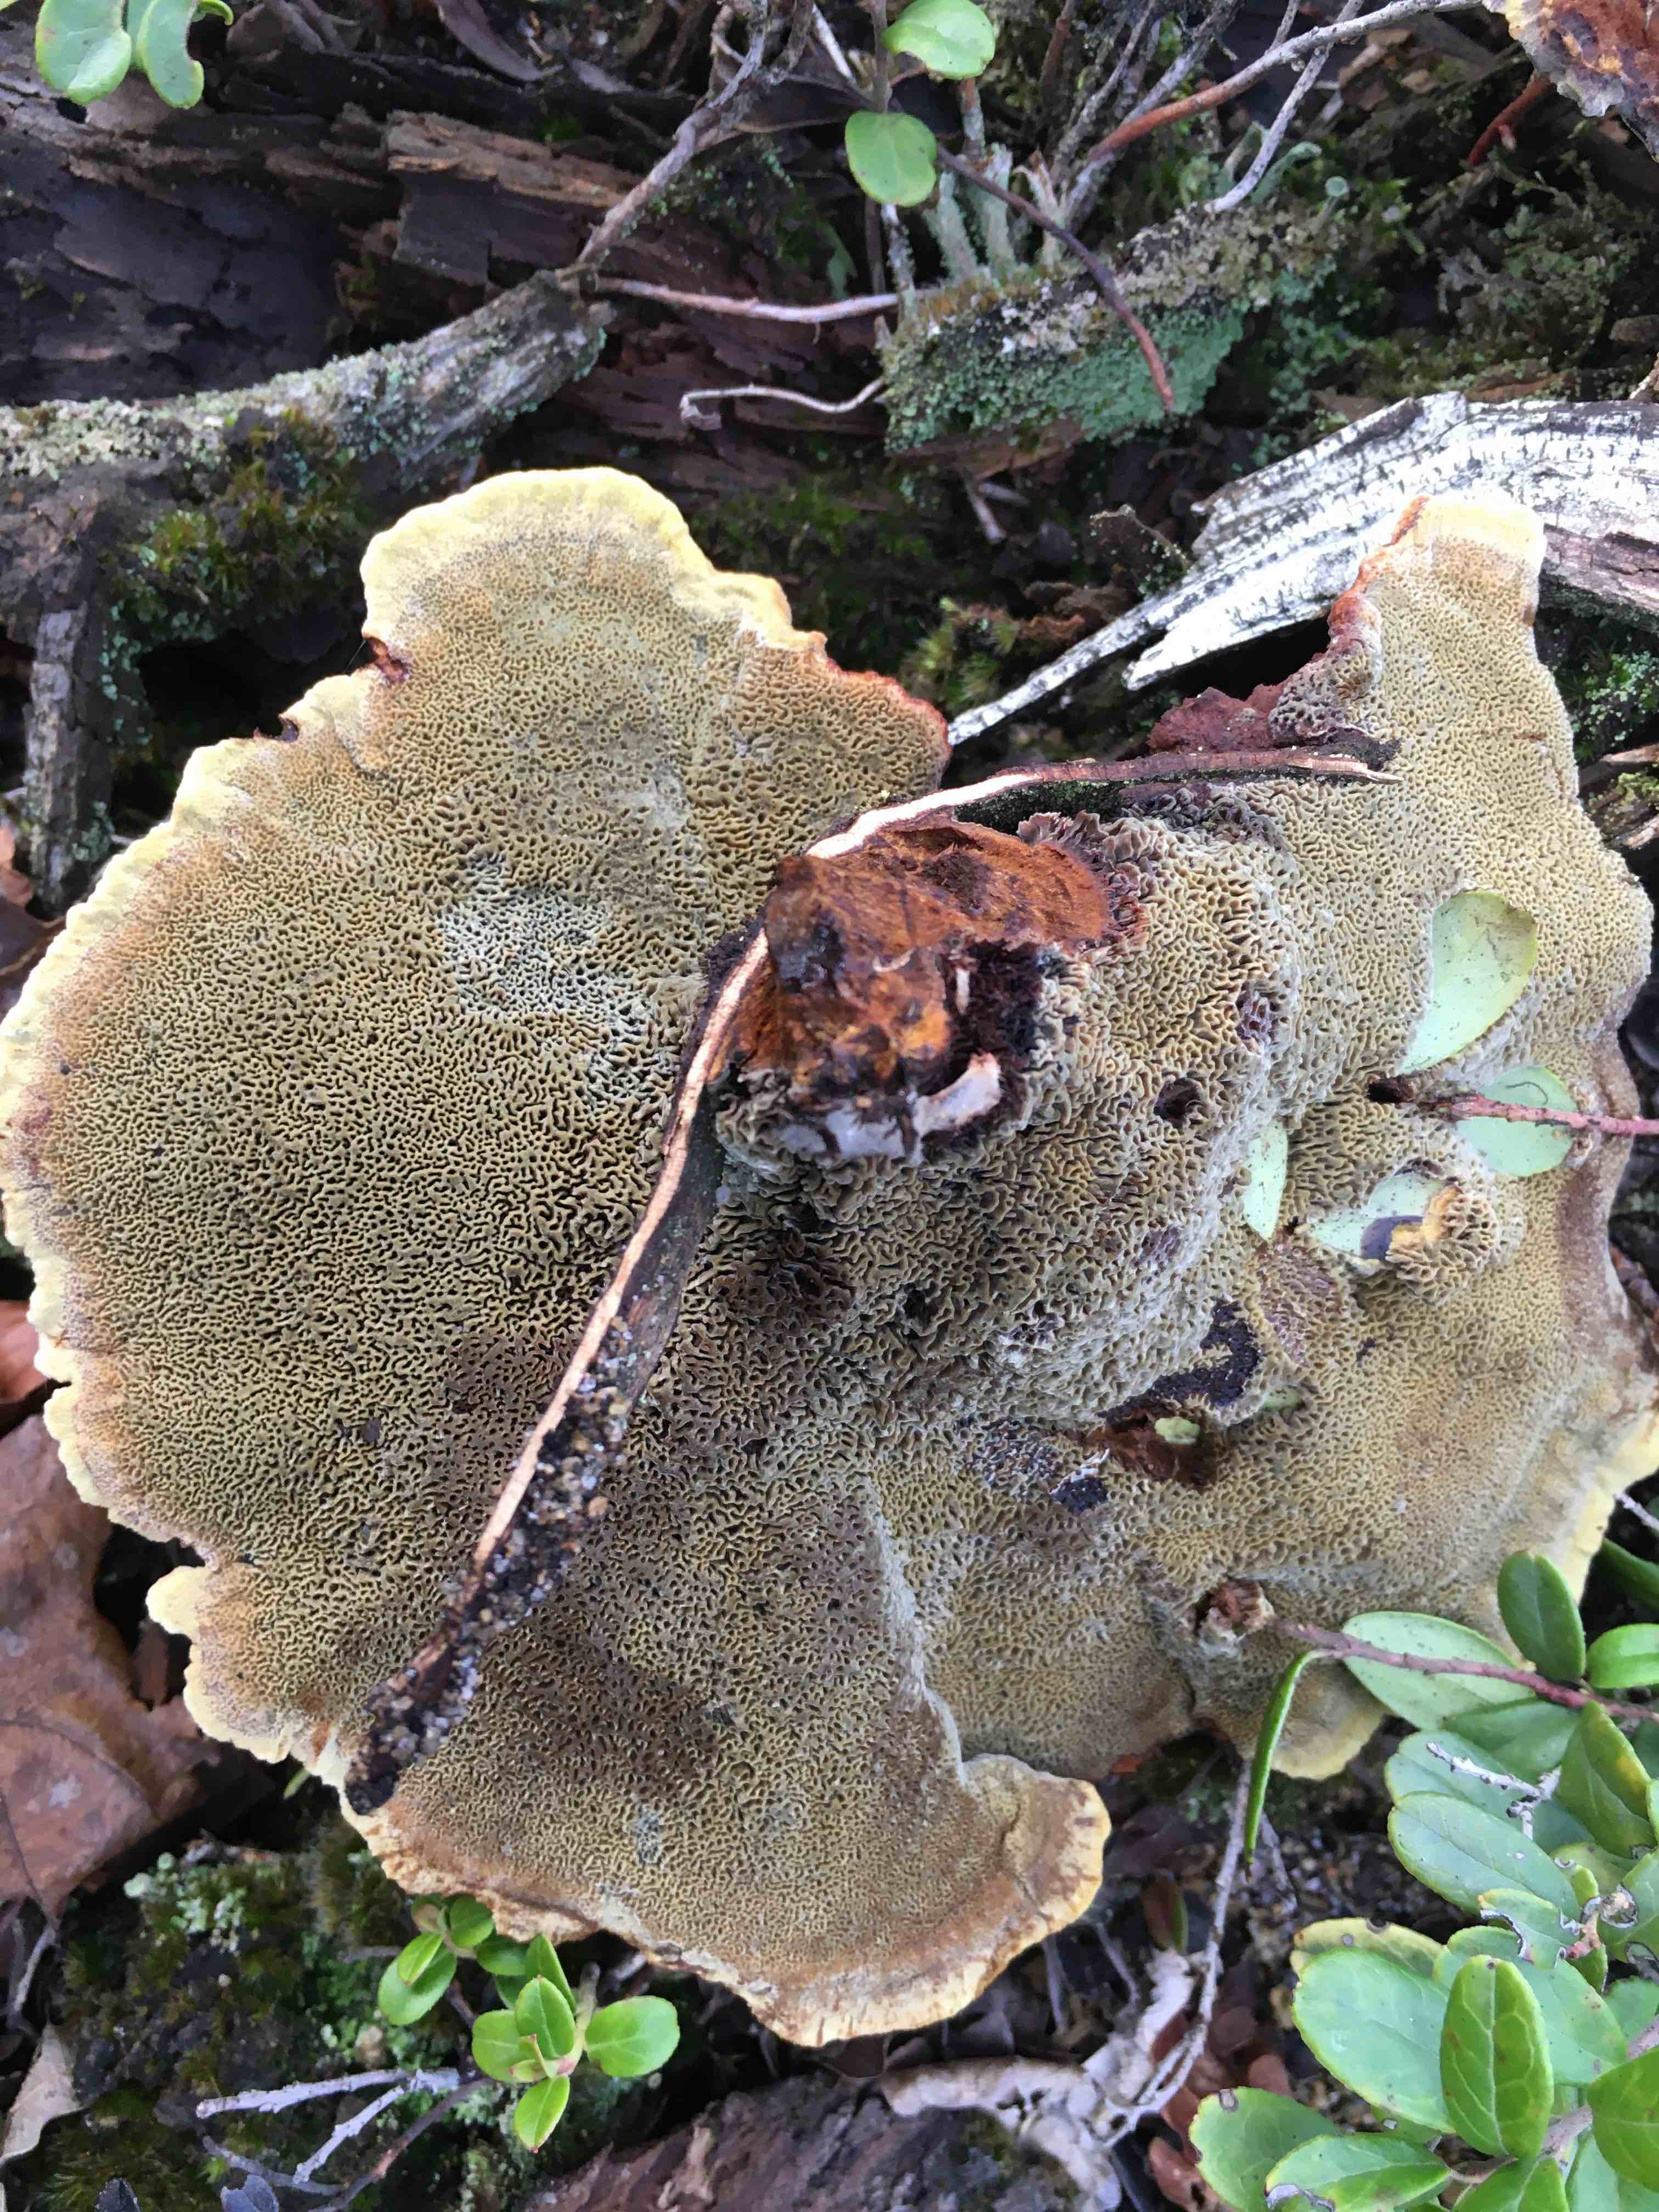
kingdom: Fungi
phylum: Basidiomycota
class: Agaricomycetes
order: Polyporales
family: Laetiporaceae
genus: Phaeolus
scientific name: Phaeolus schweinitzii
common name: brunporesvamp
